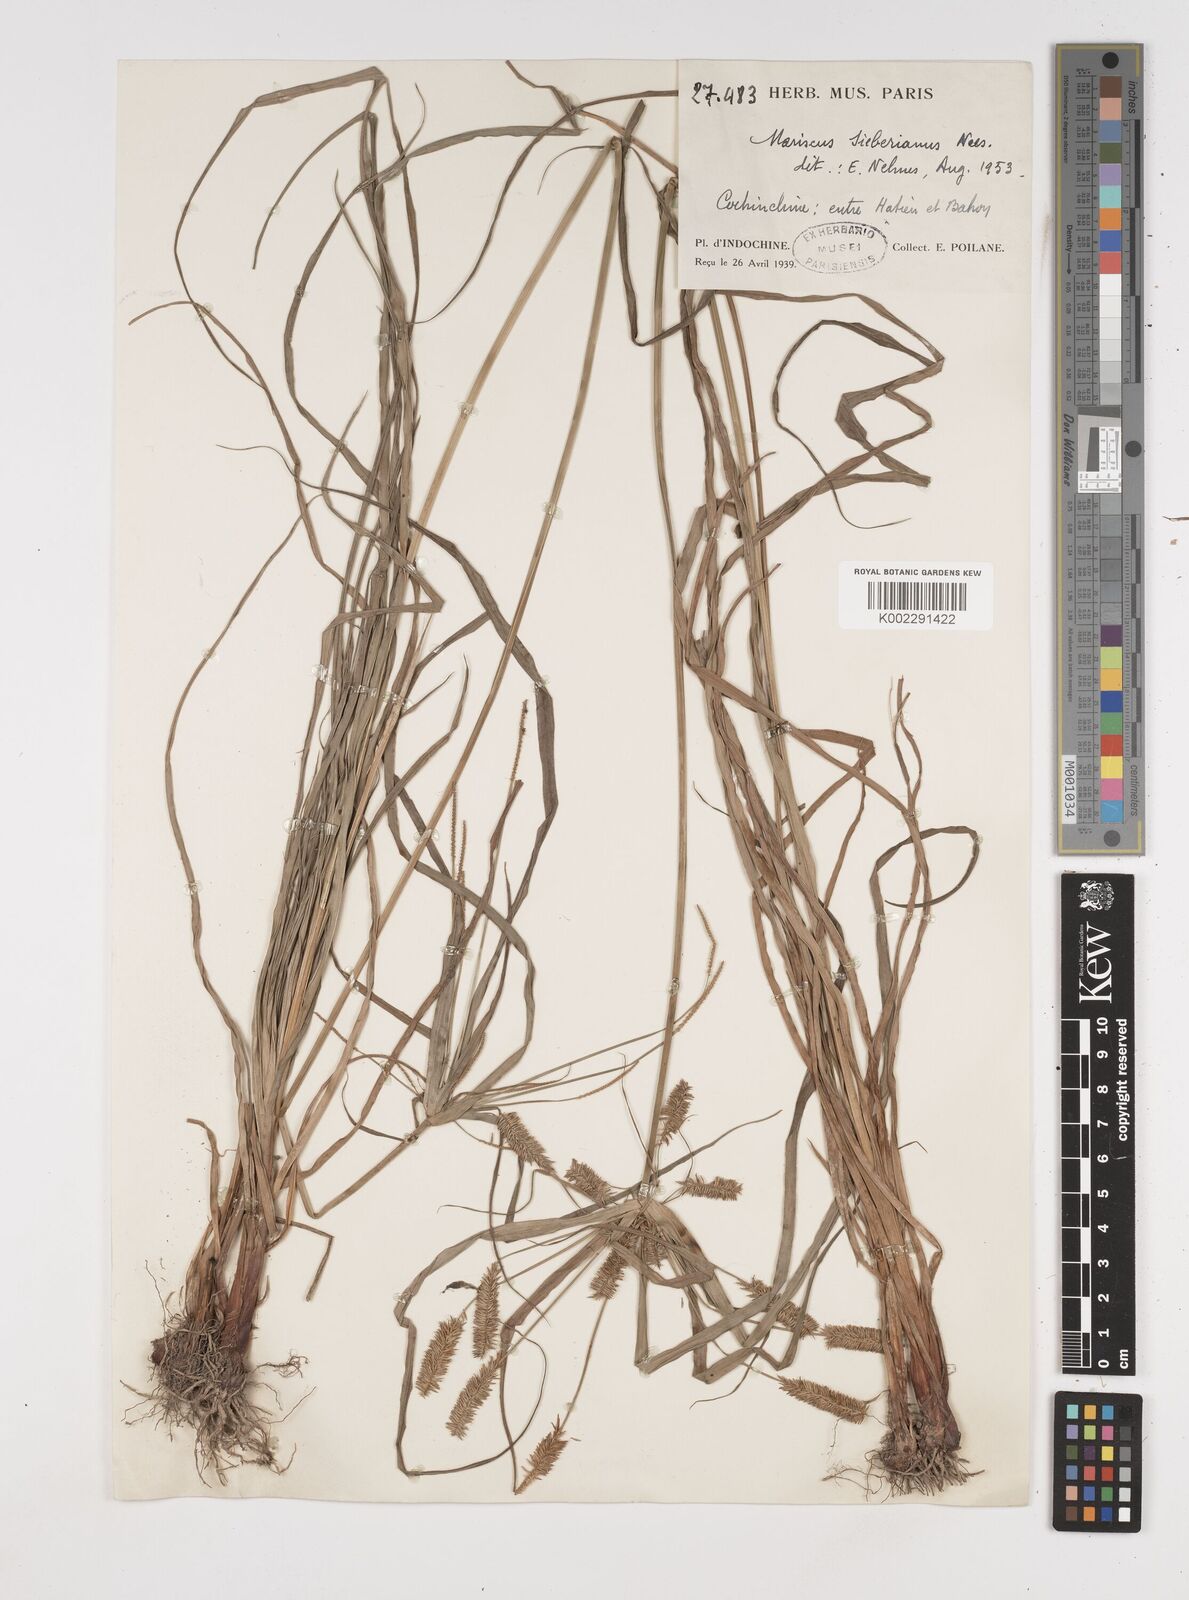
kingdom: Plantae
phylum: Tracheophyta
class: Liliopsida
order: Poales
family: Cyperaceae
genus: Cyperus
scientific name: Cyperus cyperoides
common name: Pacific island flat sedge
